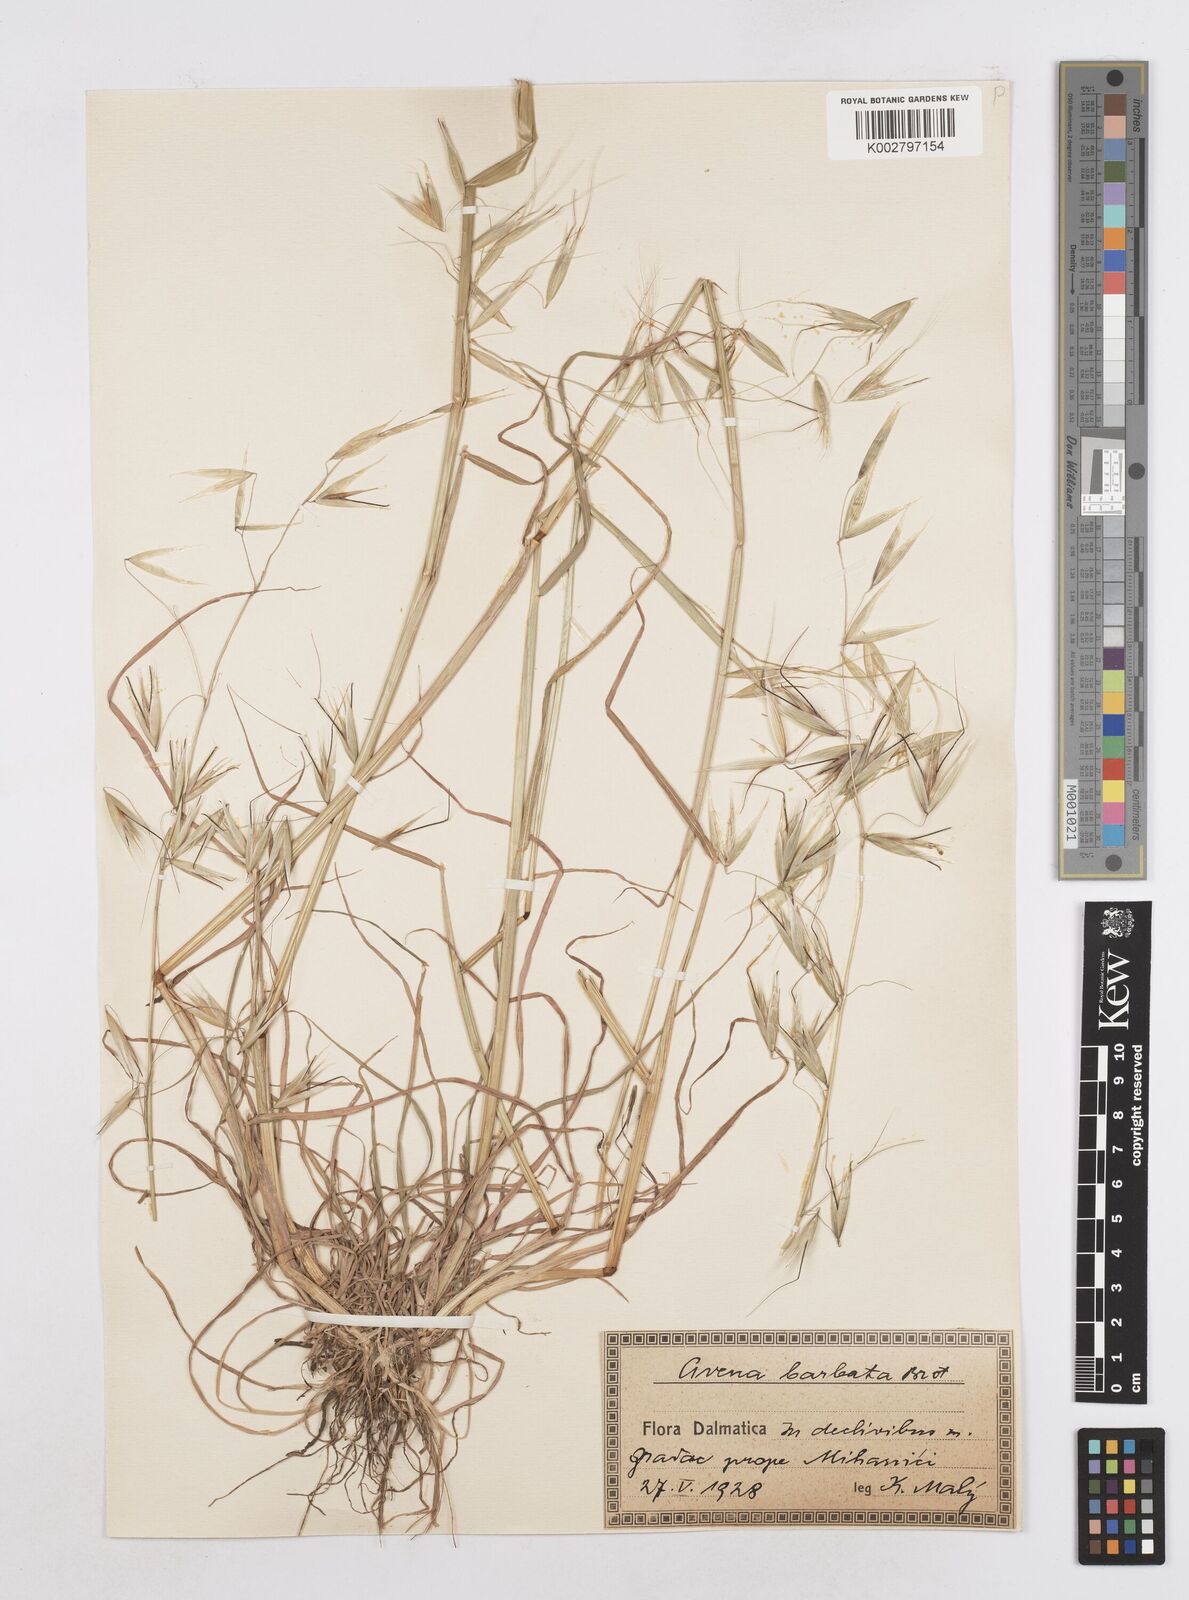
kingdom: Plantae
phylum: Tracheophyta
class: Liliopsida
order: Poales
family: Poaceae
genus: Avena
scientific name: Avena
